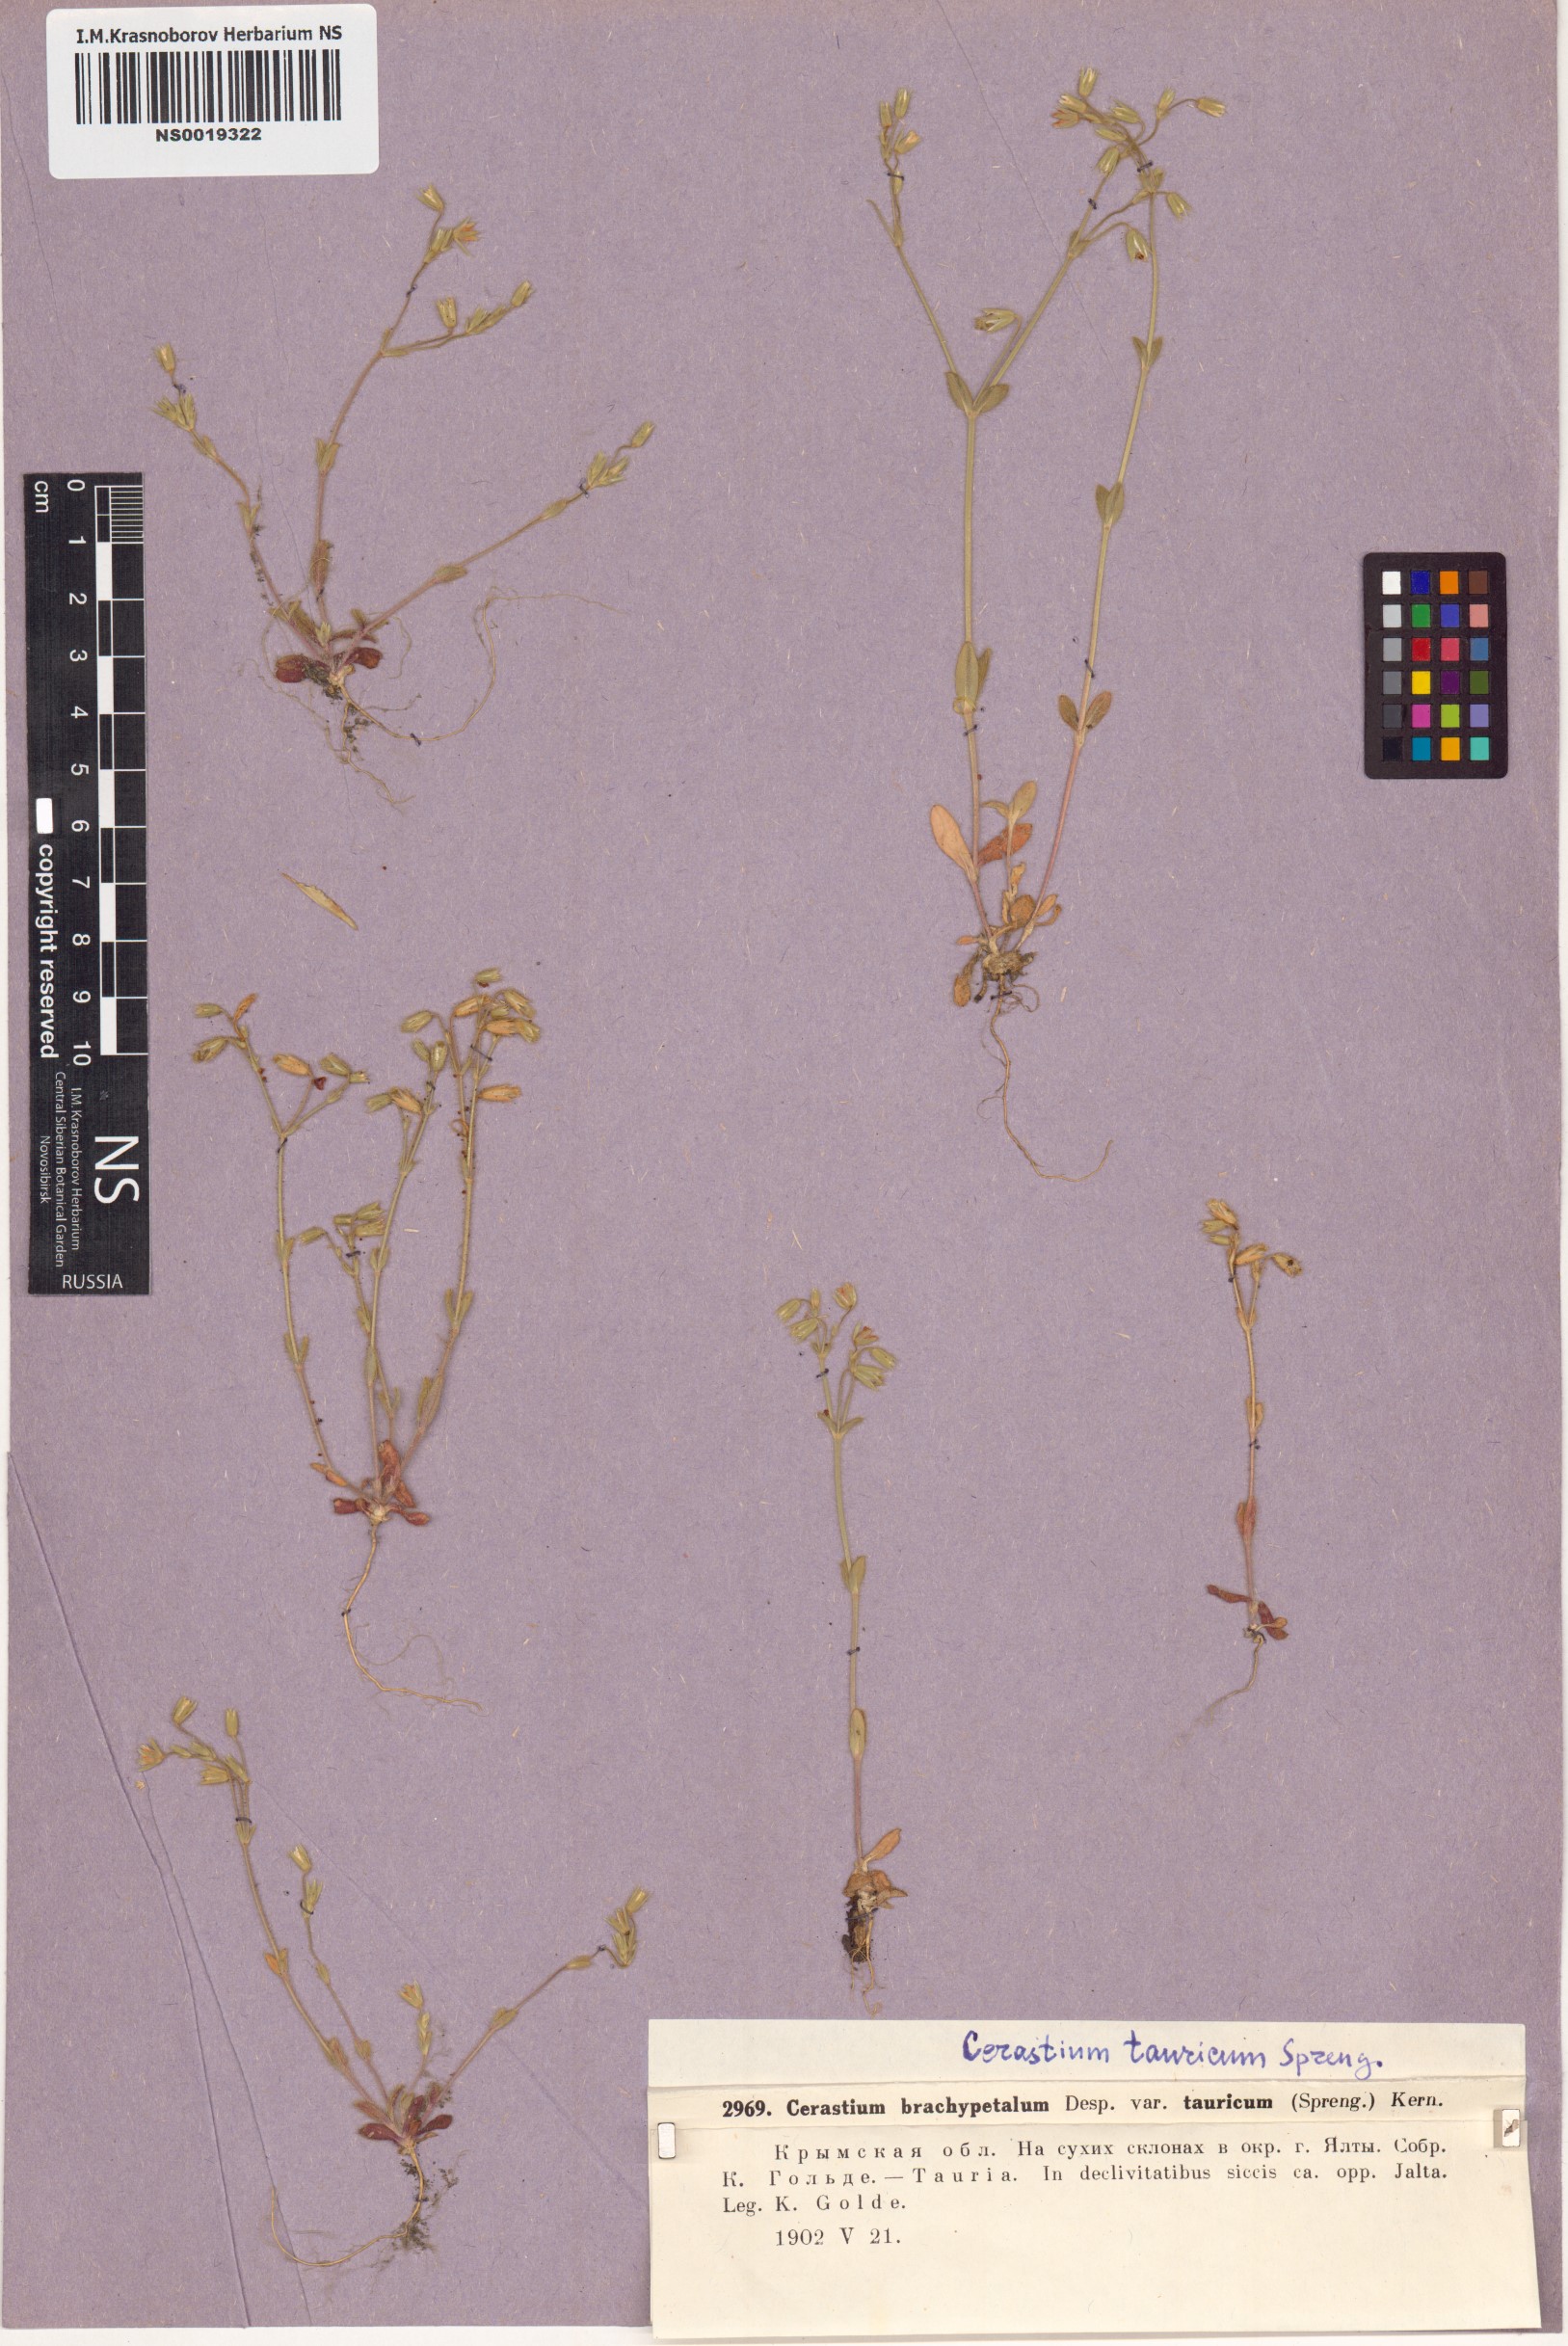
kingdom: Plantae
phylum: Tracheophyta
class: Magnoliopsida
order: Caryophyllales
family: Caryophyllaceae
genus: Cerastium
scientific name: Cerastium brachypetalum
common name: Grey mouse-ear
